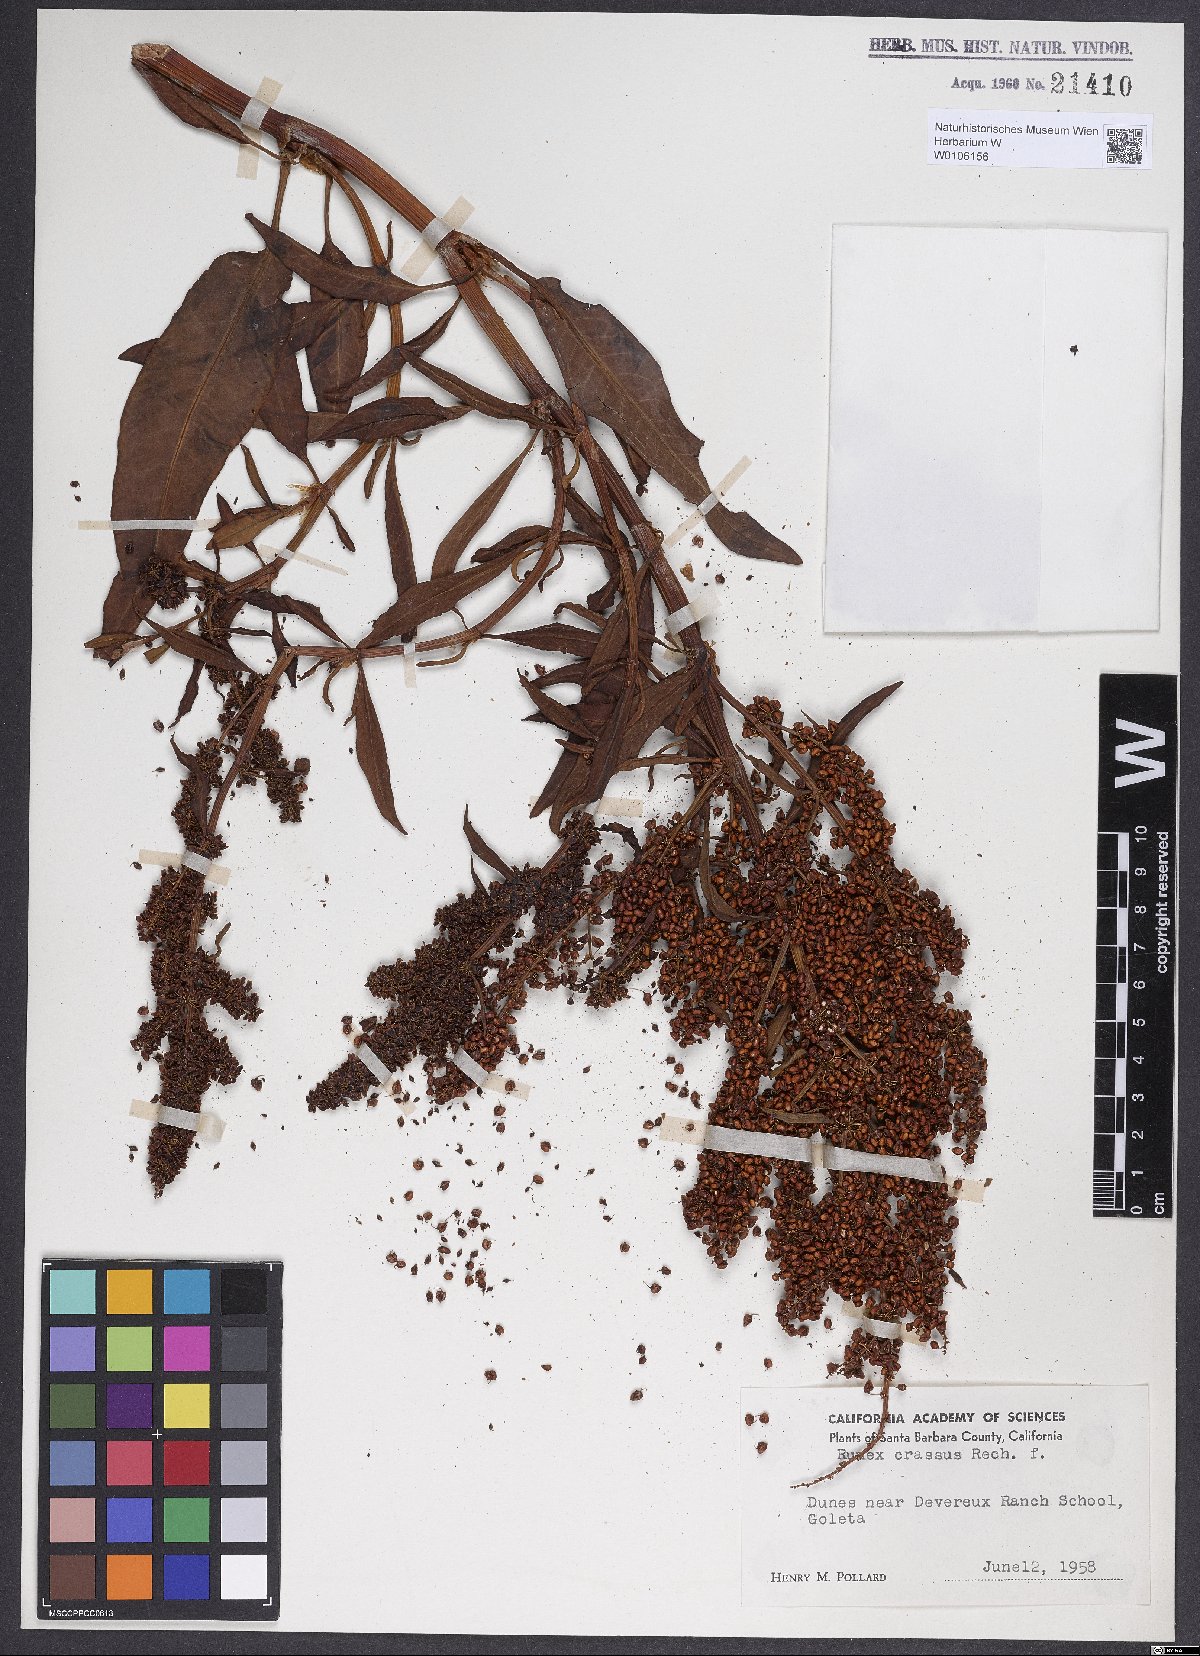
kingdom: Plantae
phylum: Tracheophyta
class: Magnoliopsida
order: Caryophyllales
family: Polygonaceae
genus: Rumex
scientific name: Rumex crassus
